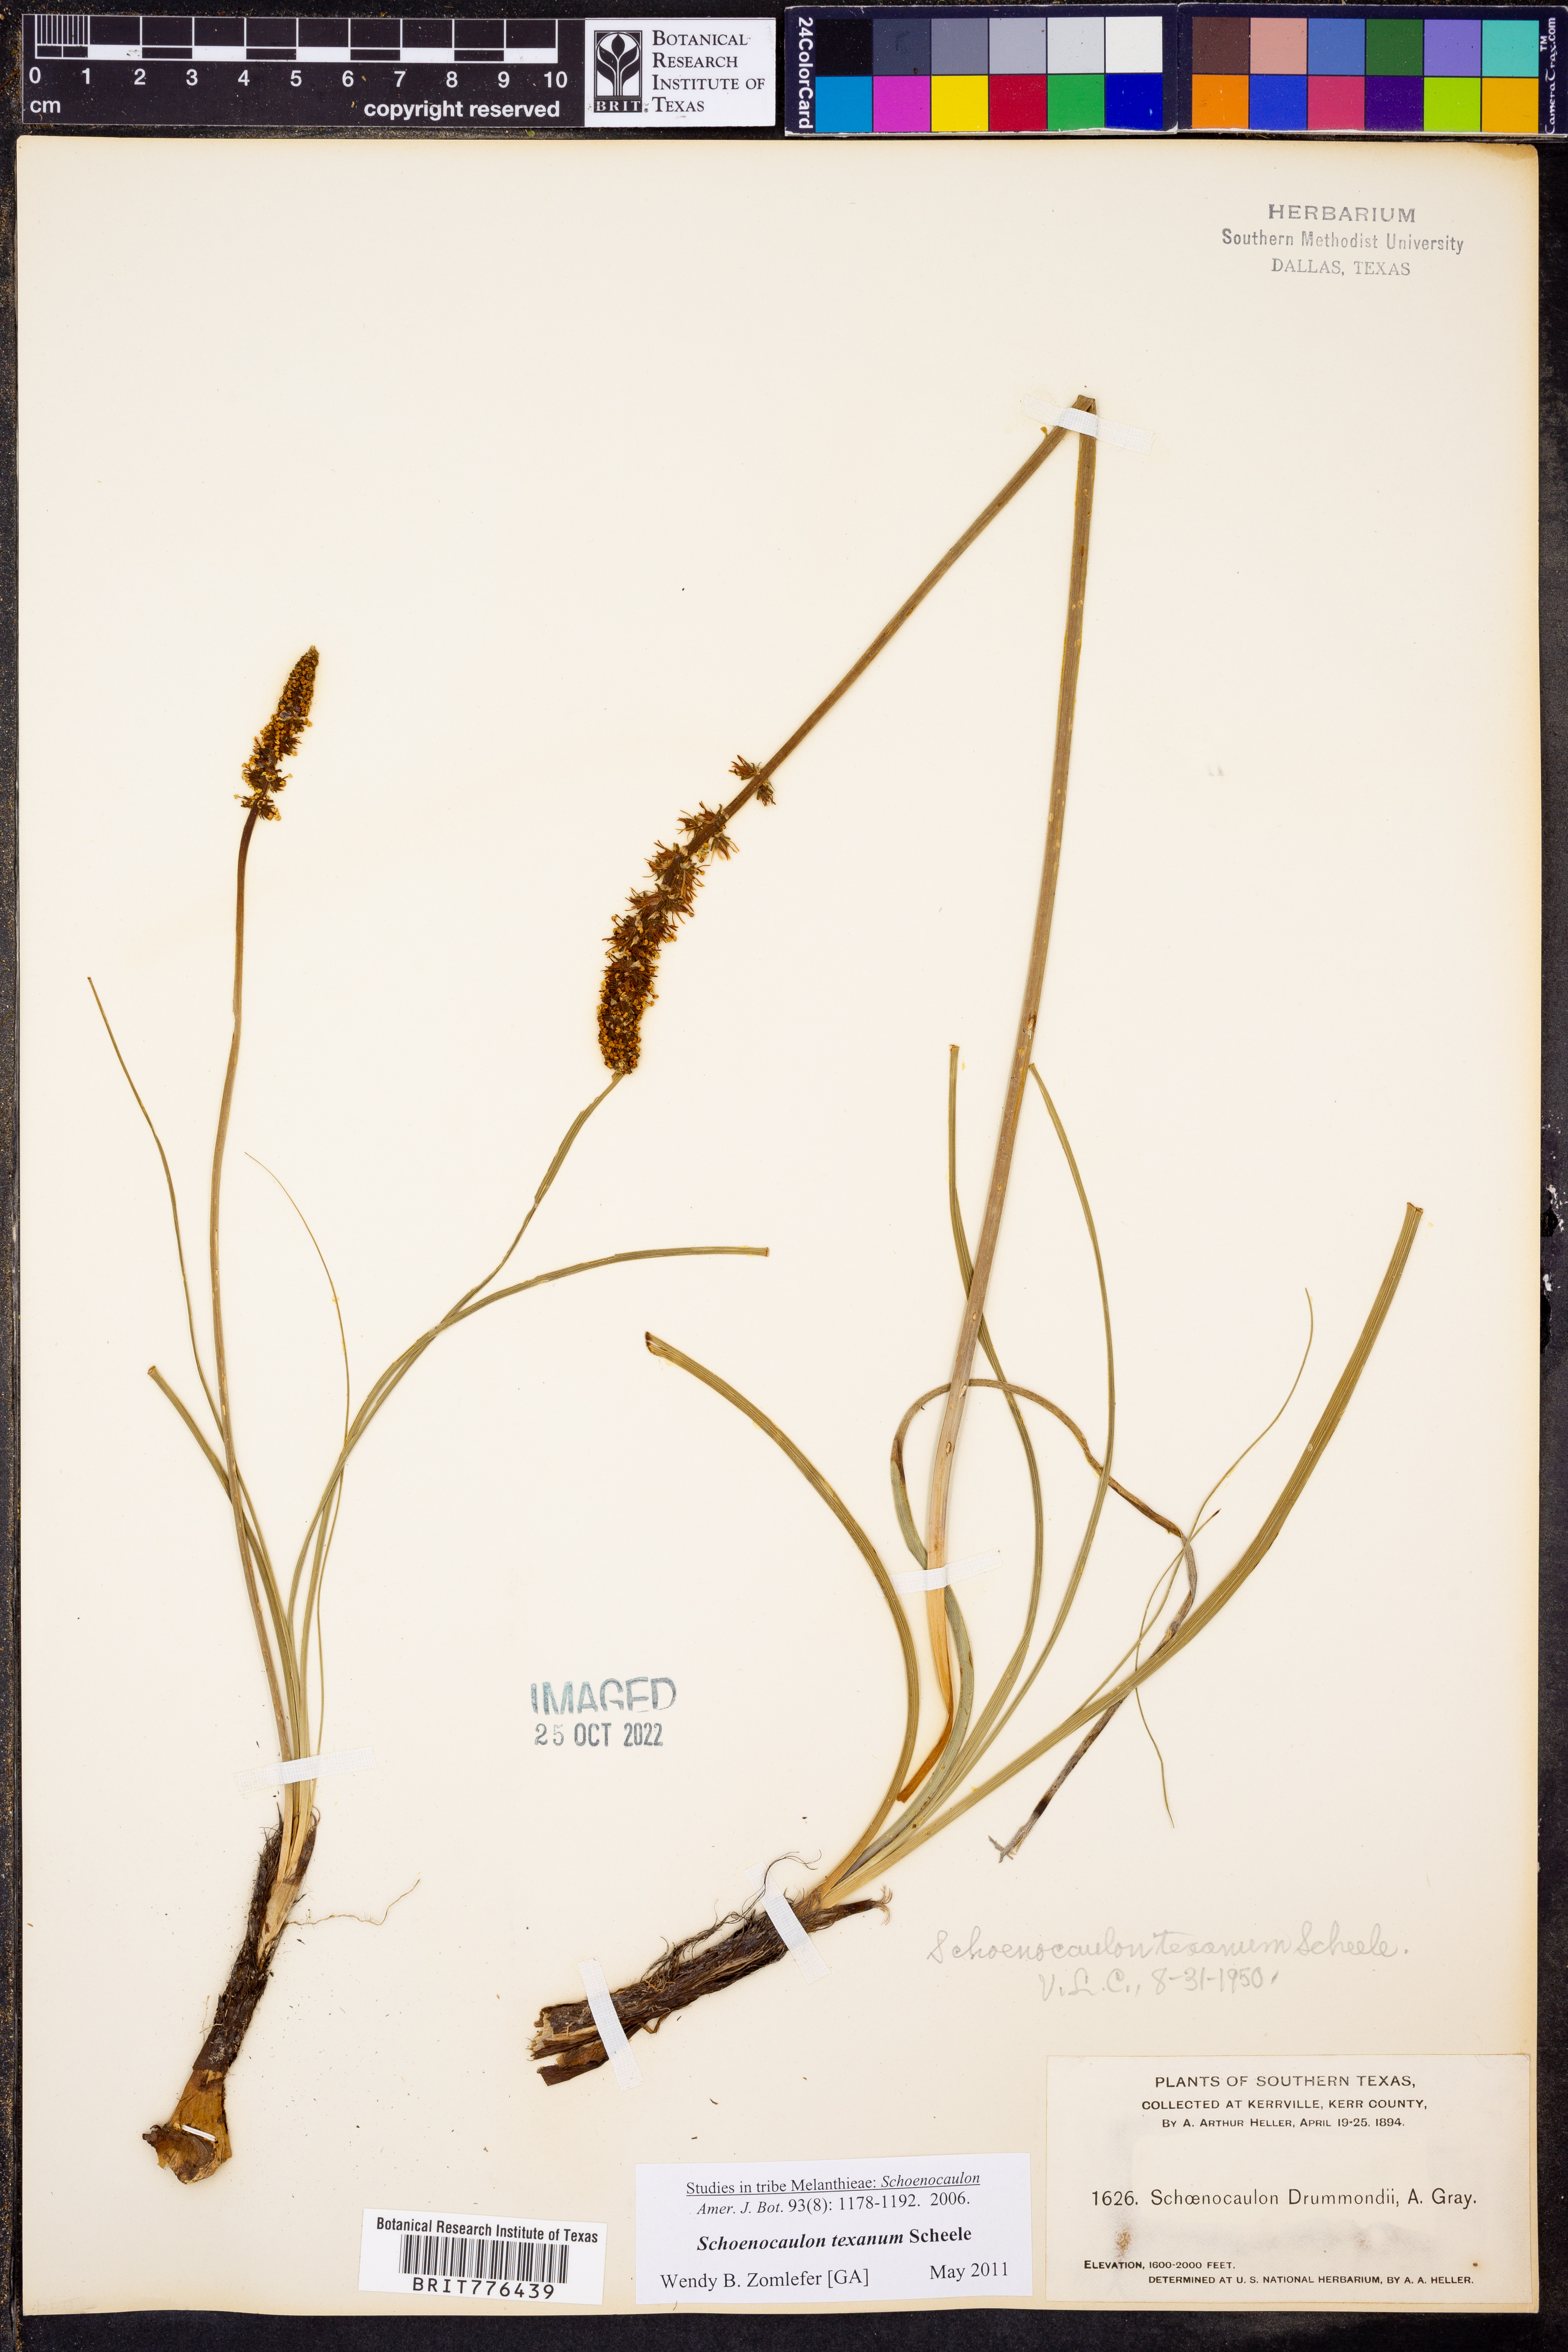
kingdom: Plantae
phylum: Tracheophyta
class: Liliopsida
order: Liliales
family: Melanthiaceae
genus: Schoenocaulon
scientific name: Schoenocaulon texanum
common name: Texas feather-shank
